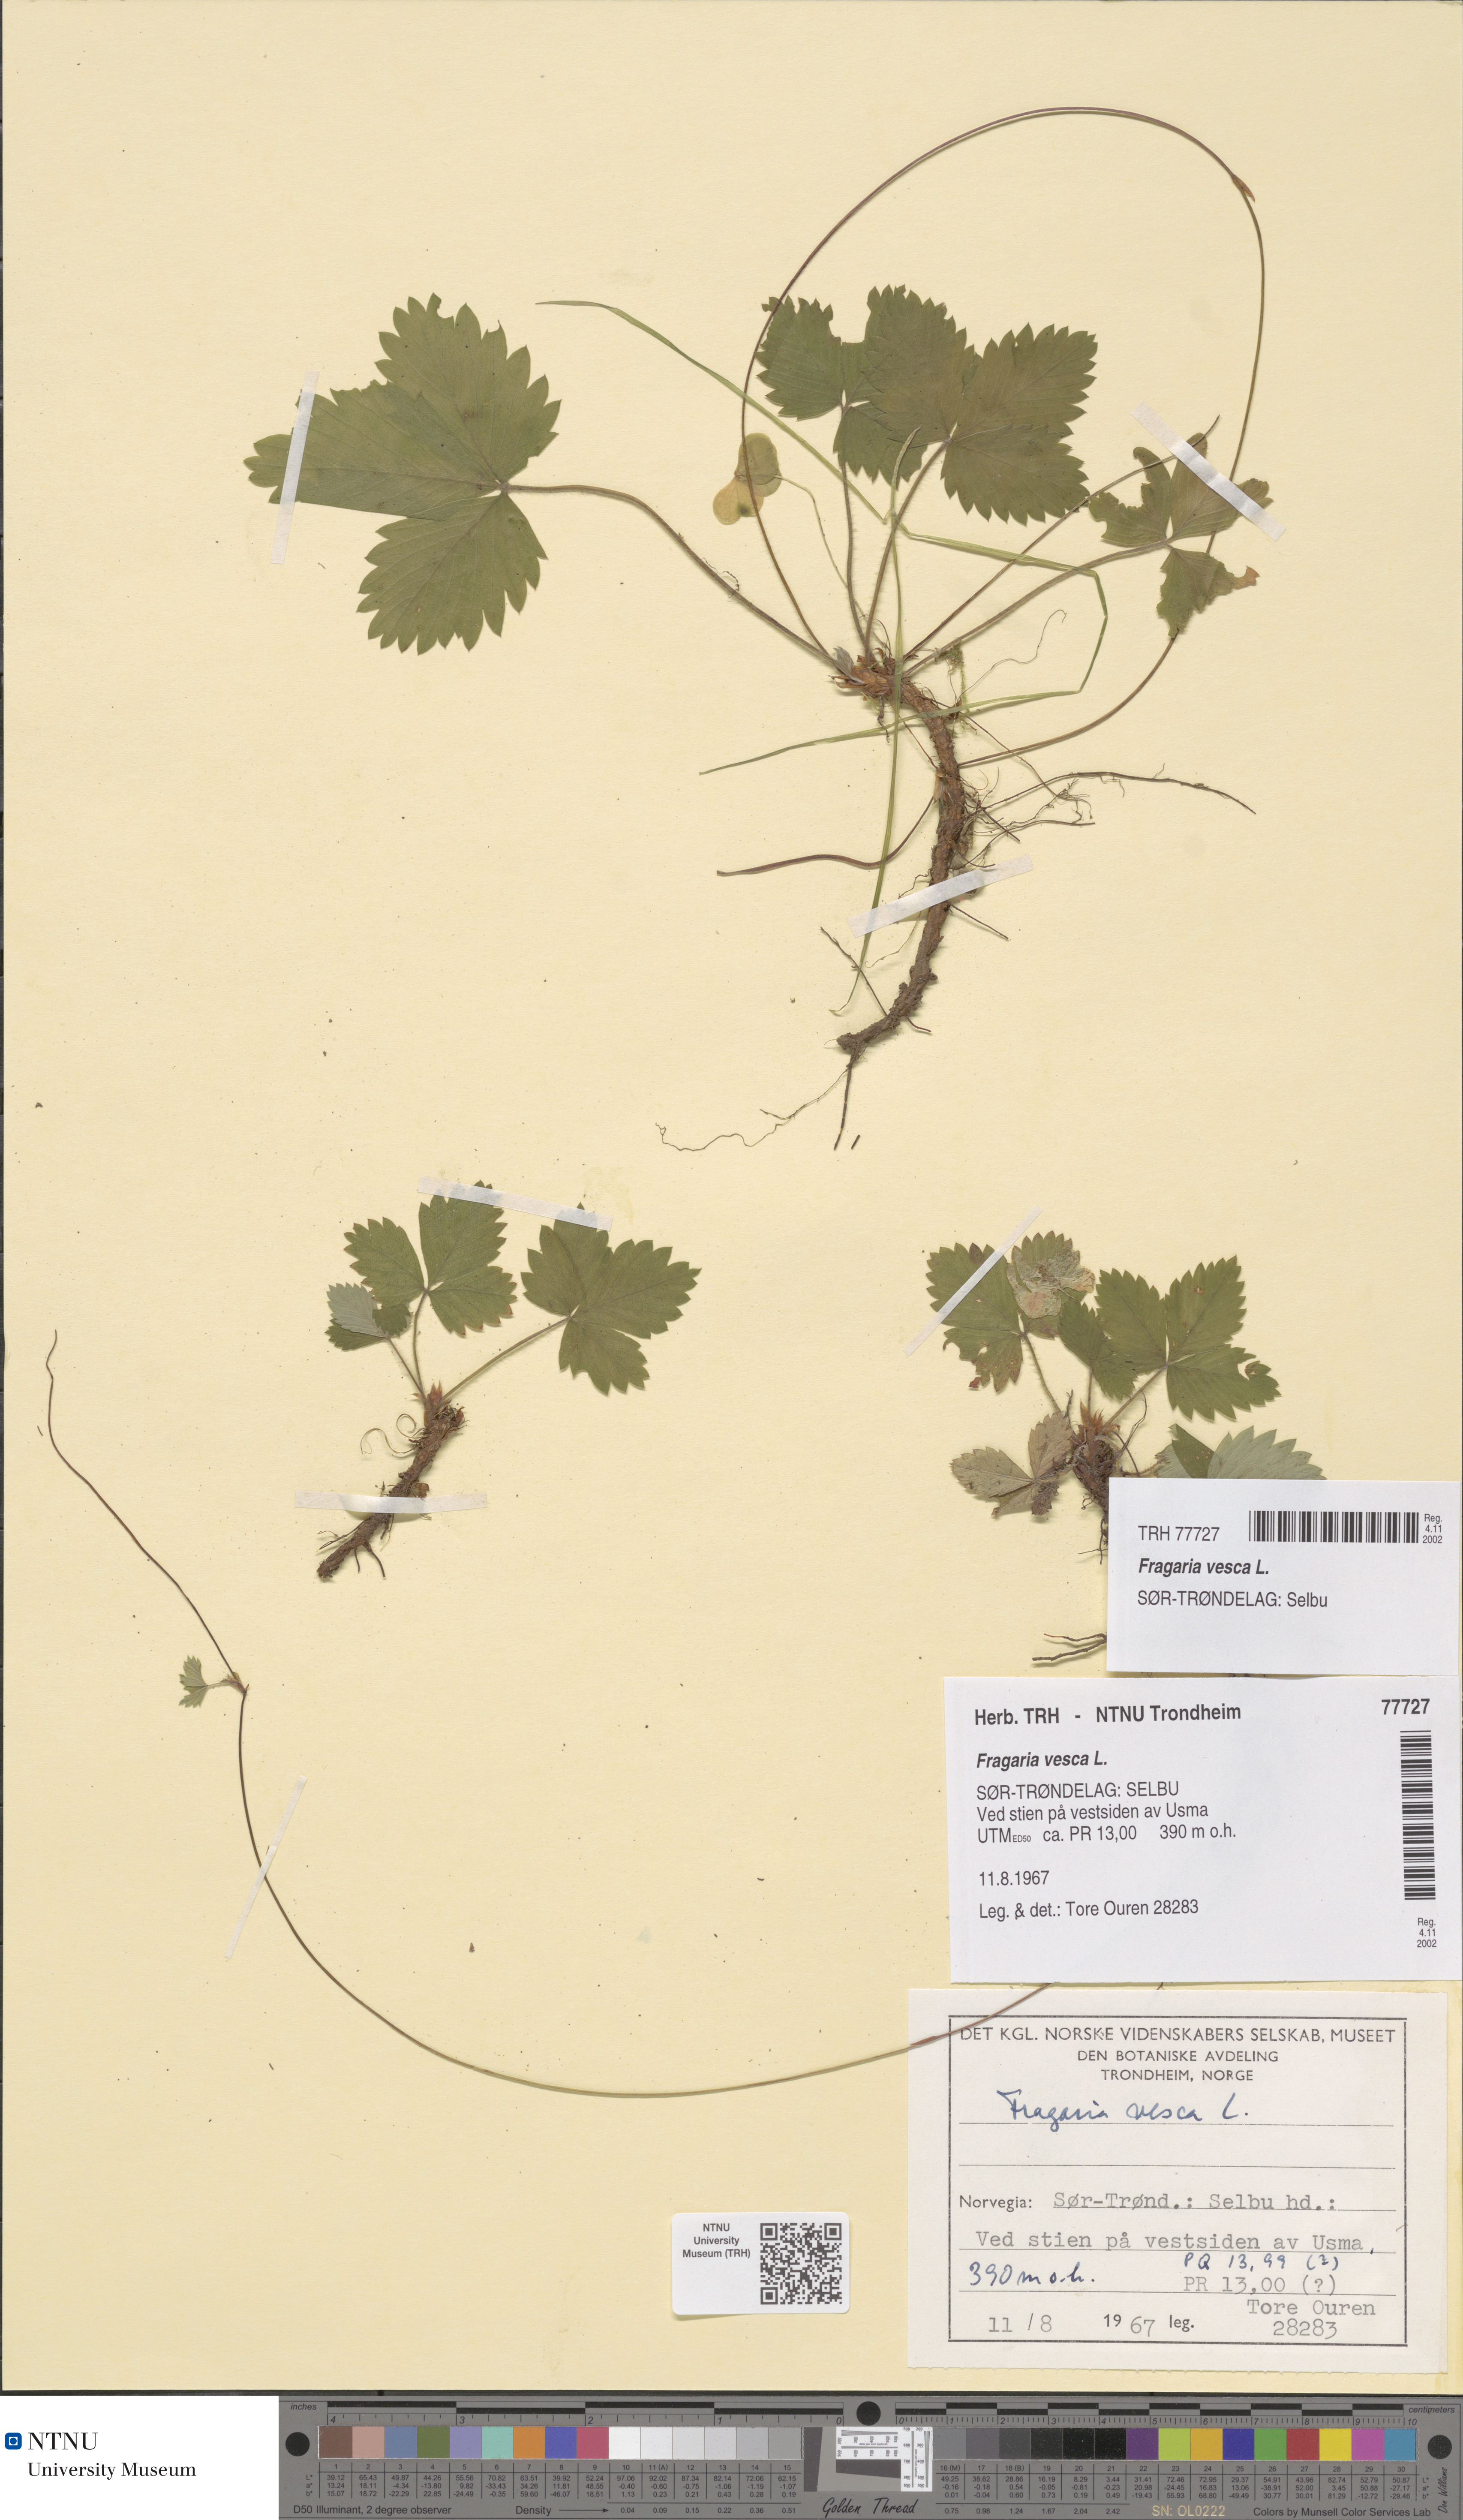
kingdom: Plantae
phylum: Tracheophyta
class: Magnoliopsida
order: Rosales
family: Rosaceae
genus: Fragaria
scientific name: Fragaria vesca
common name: Wild strawberry
